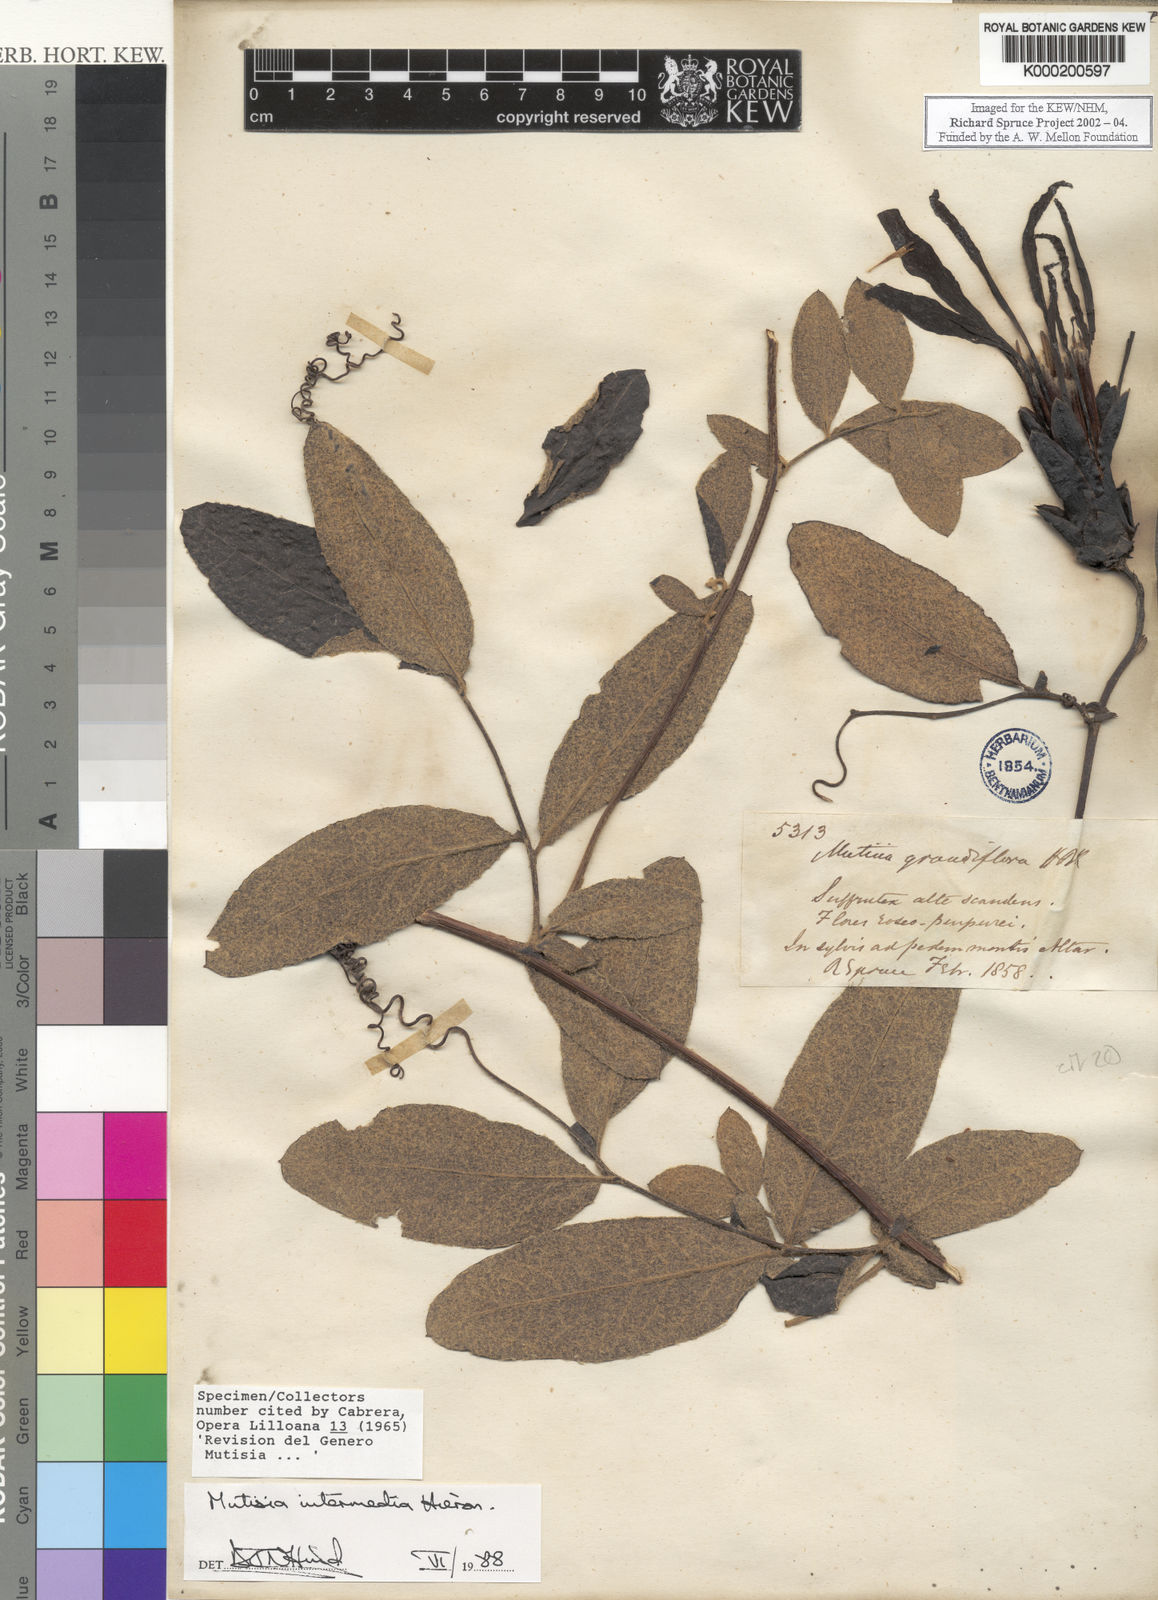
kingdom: Plantae
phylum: Tracheophyta
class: Magnoliopsida
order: Asterales
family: Asteraceae
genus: Mutisia
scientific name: Mutisia intermedia
